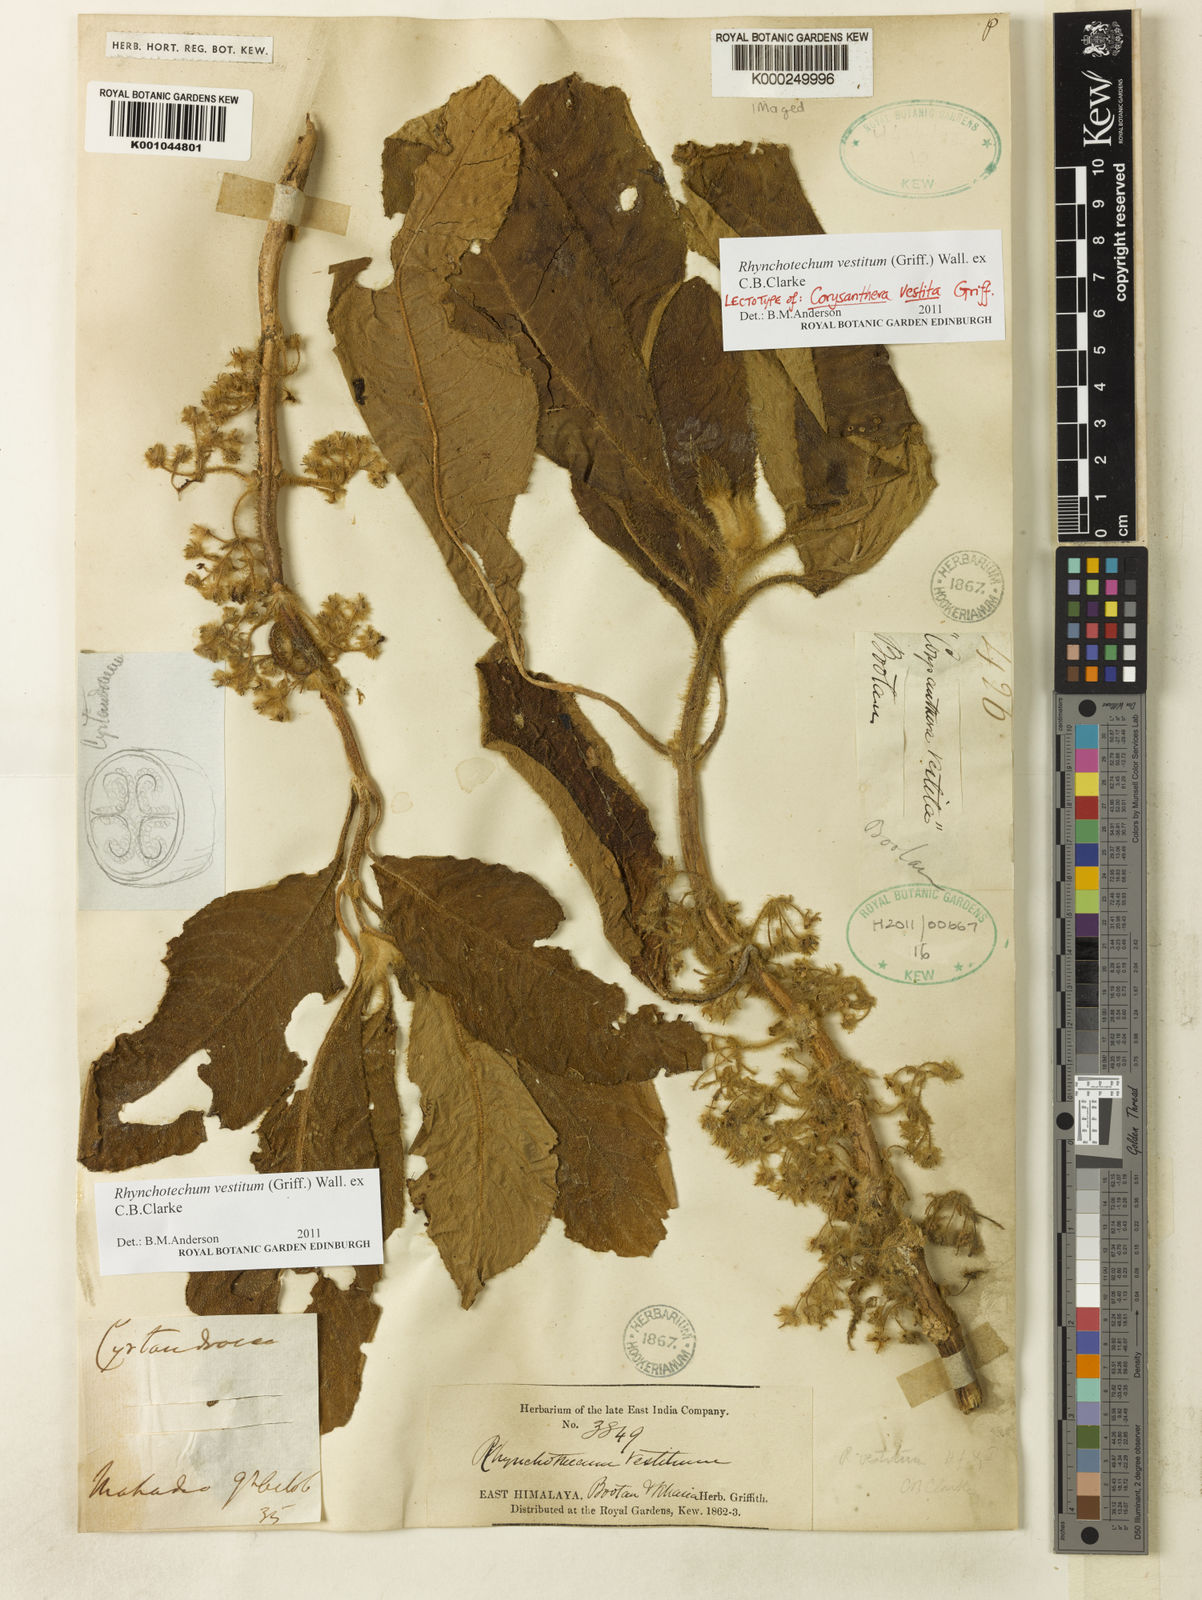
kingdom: Plantae
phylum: Tracheophyta
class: Magnoliopsida
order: Lamiales
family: Gesneriaceae
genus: Rhynchotechum
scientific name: Rhynchotechum vestitum
